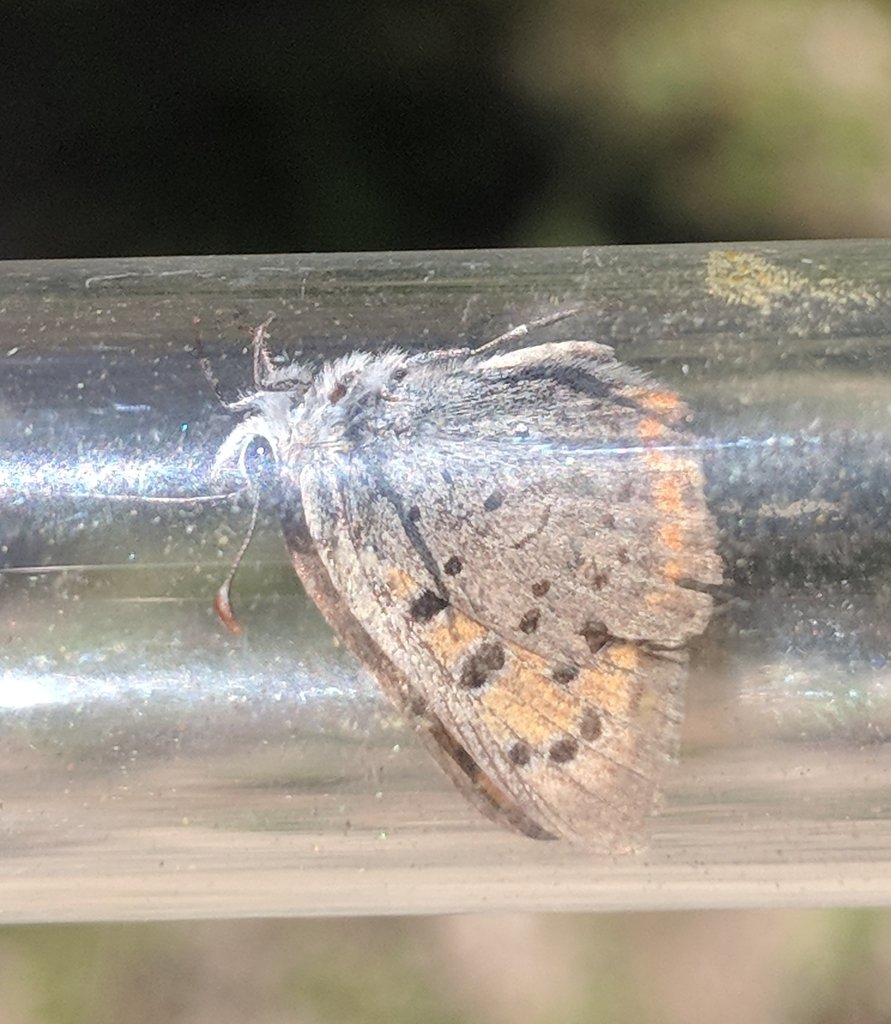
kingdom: Animalia
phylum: Arthropoda
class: Insecta
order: Lepidoptera
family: Lycaenidae
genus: Lycaena
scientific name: Lycaena phlaeas
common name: American Copper
